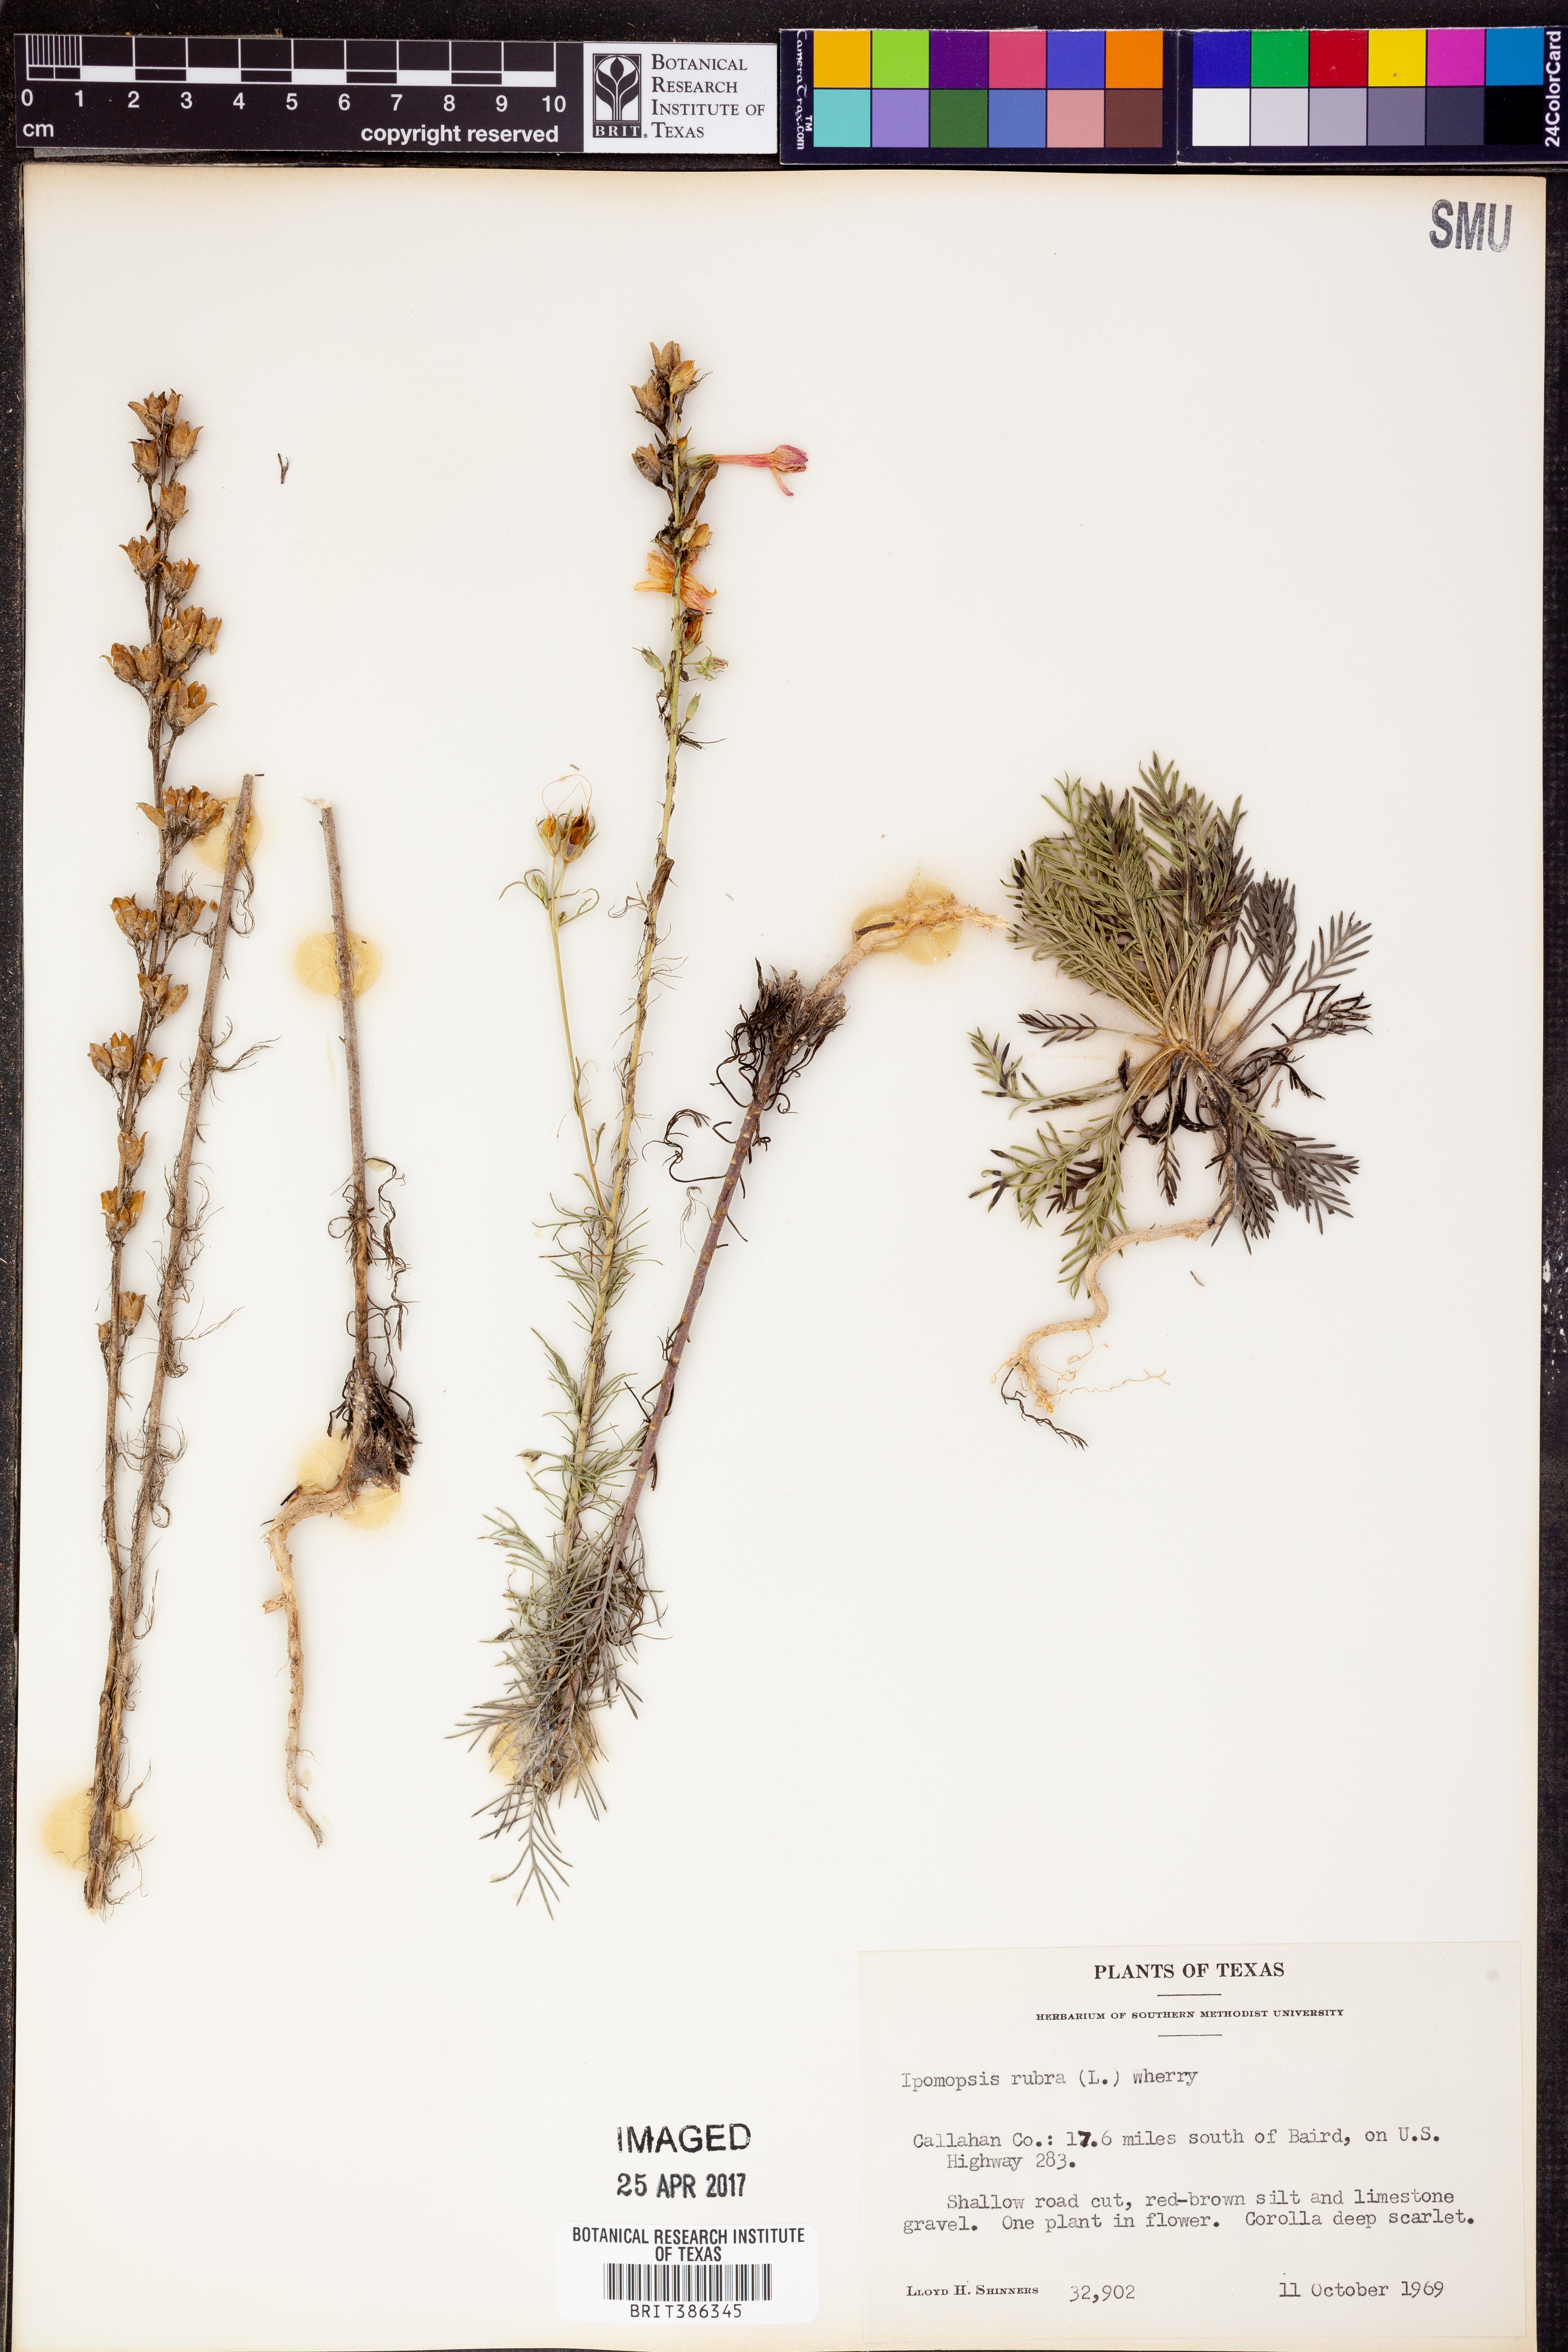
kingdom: Plantae
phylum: Tracheophyta
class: Magnoliopsida
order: Ericales
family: Polemoniaceae
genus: Ipomopsis
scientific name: Ipomopsis rubra
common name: Skyrocket
